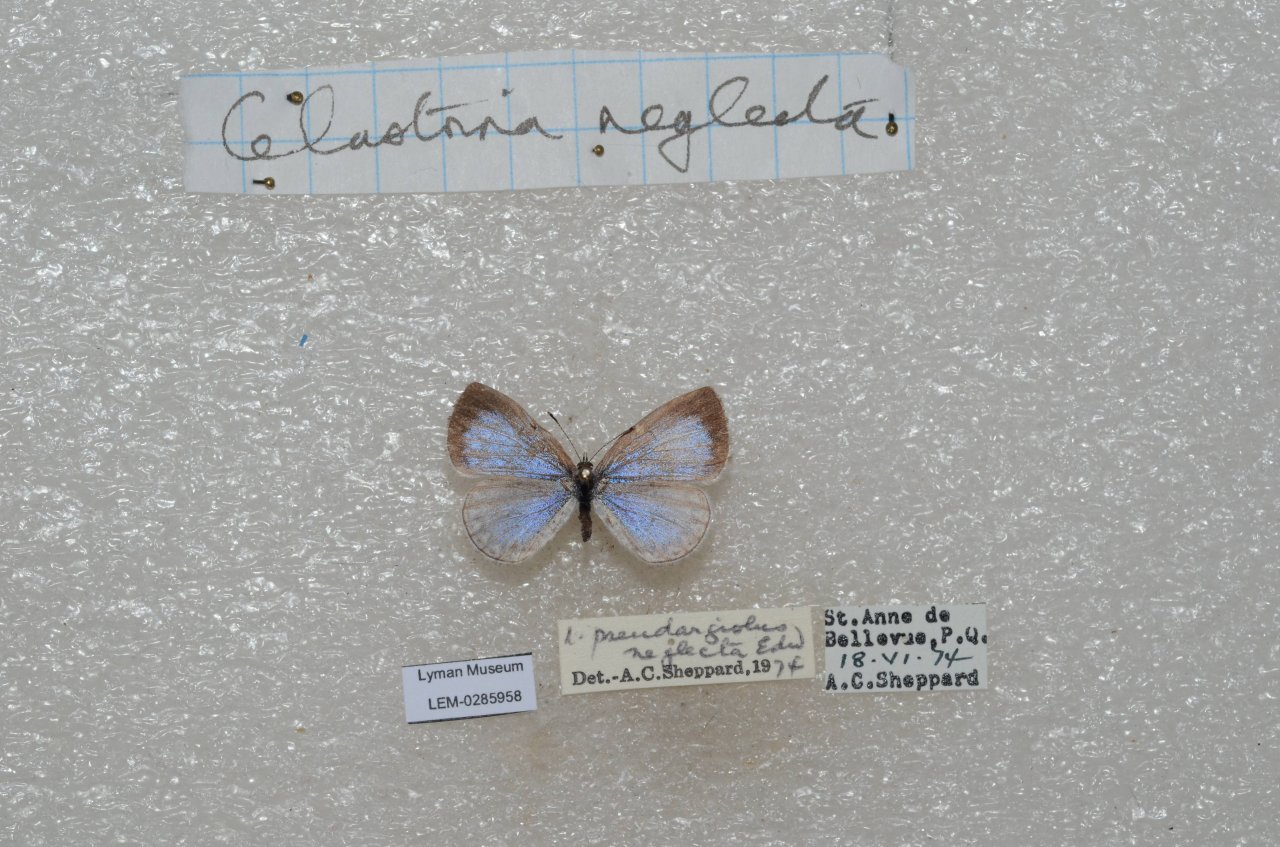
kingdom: Animalia
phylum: Arthropoda
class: Insecta
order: Lepidoptera
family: Lycaenidae
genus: Celastrina
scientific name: Celastrina lucia
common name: Northern Spring Azure
